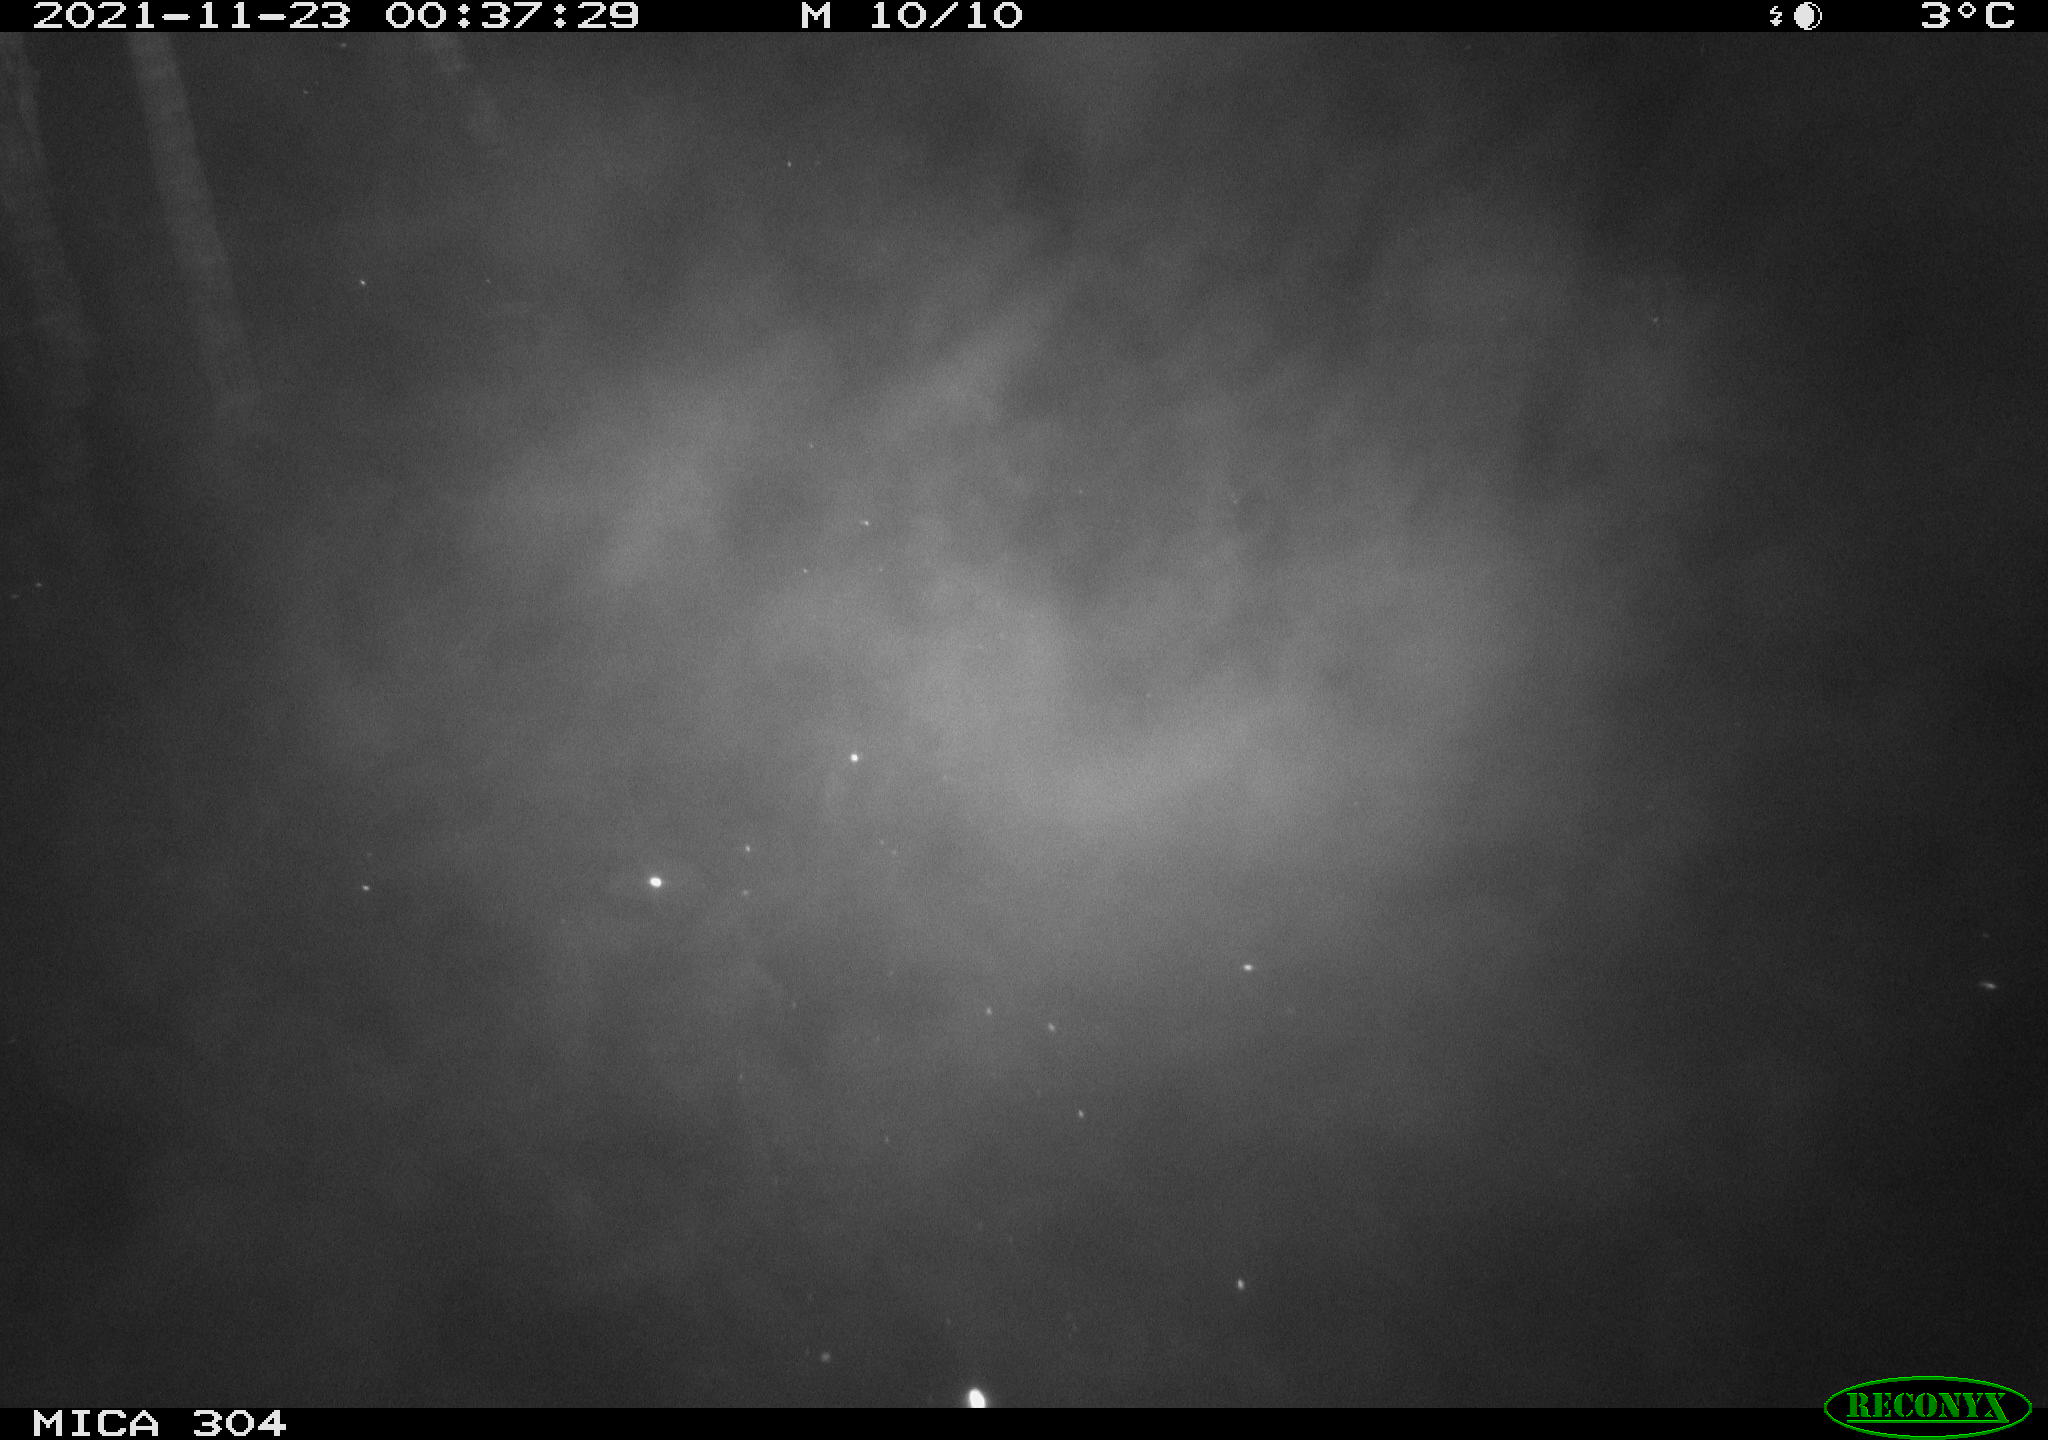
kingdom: Animalia
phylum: Chordata
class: Aves
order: Anseriformes
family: Anatidae
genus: Anas
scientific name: Anas platyrhynchos
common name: Mallard
